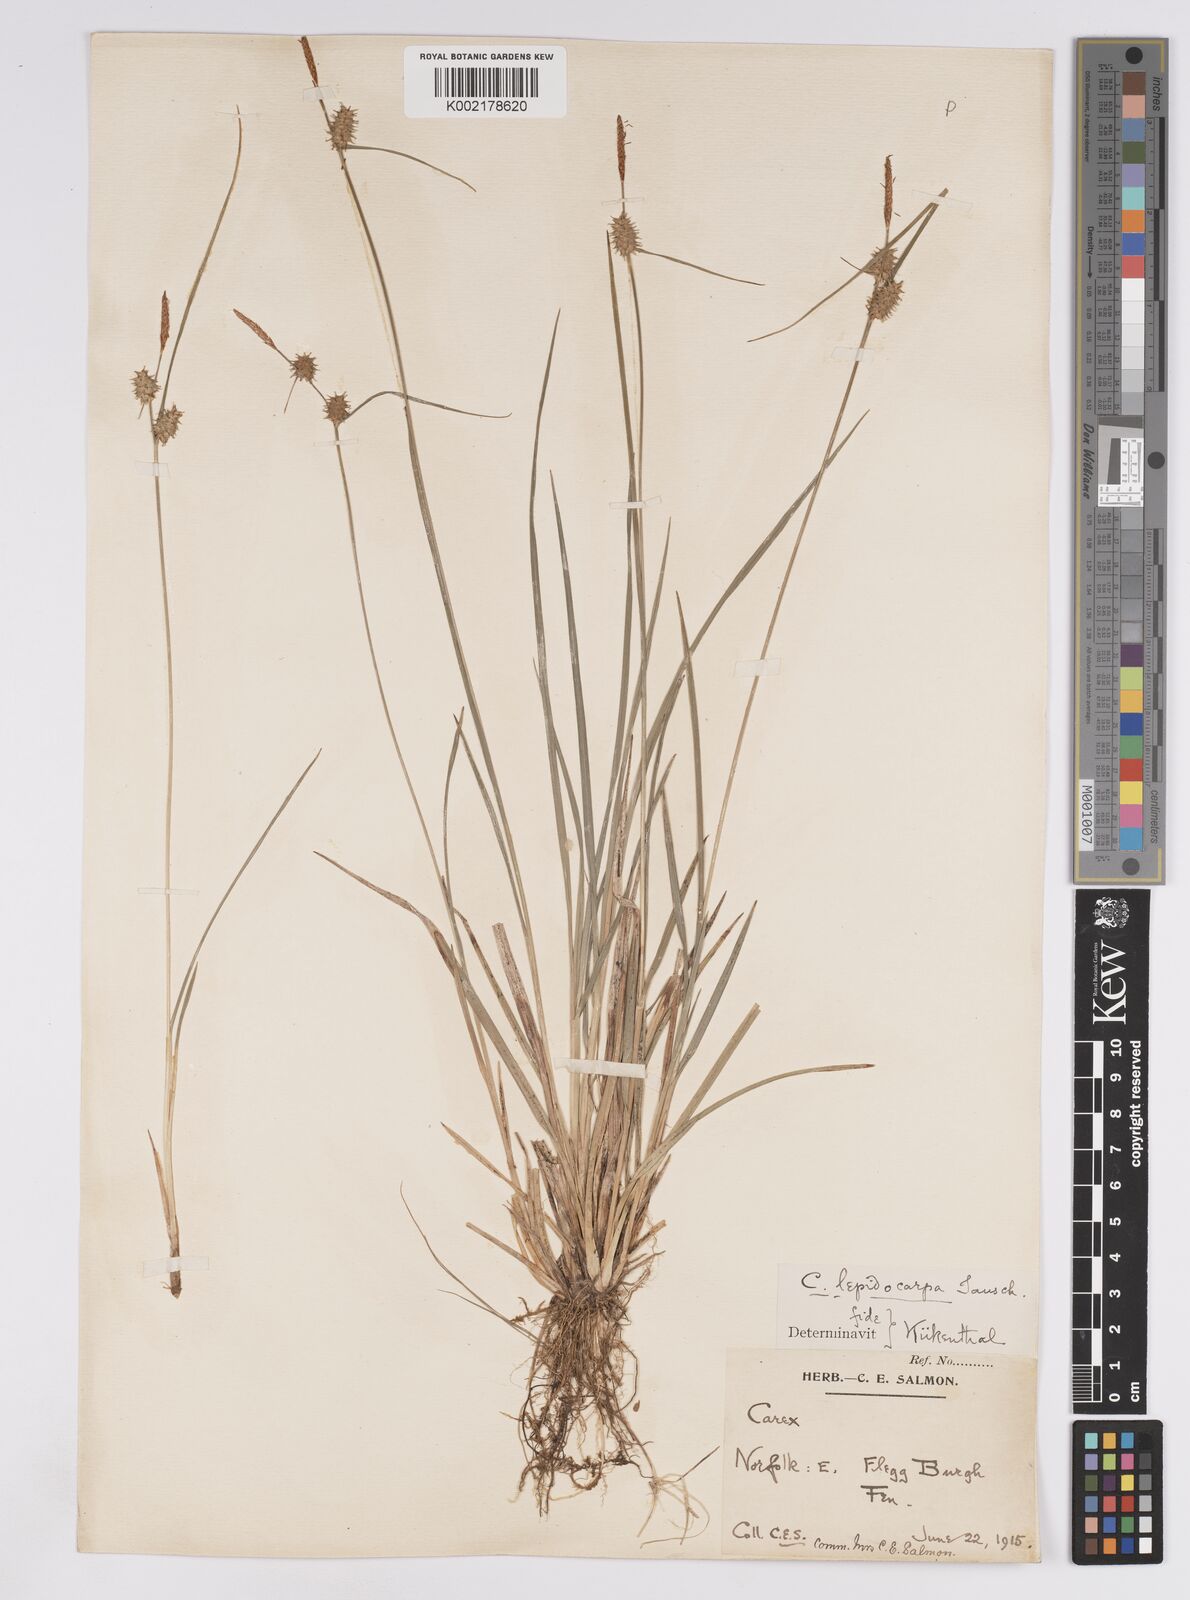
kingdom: Plantae
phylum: Tracheophyta
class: Liliopsida
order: Poales
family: Cyperaceae
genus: Carex
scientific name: Carex lepidocarpa
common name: Long-stalked yellow-sedge
